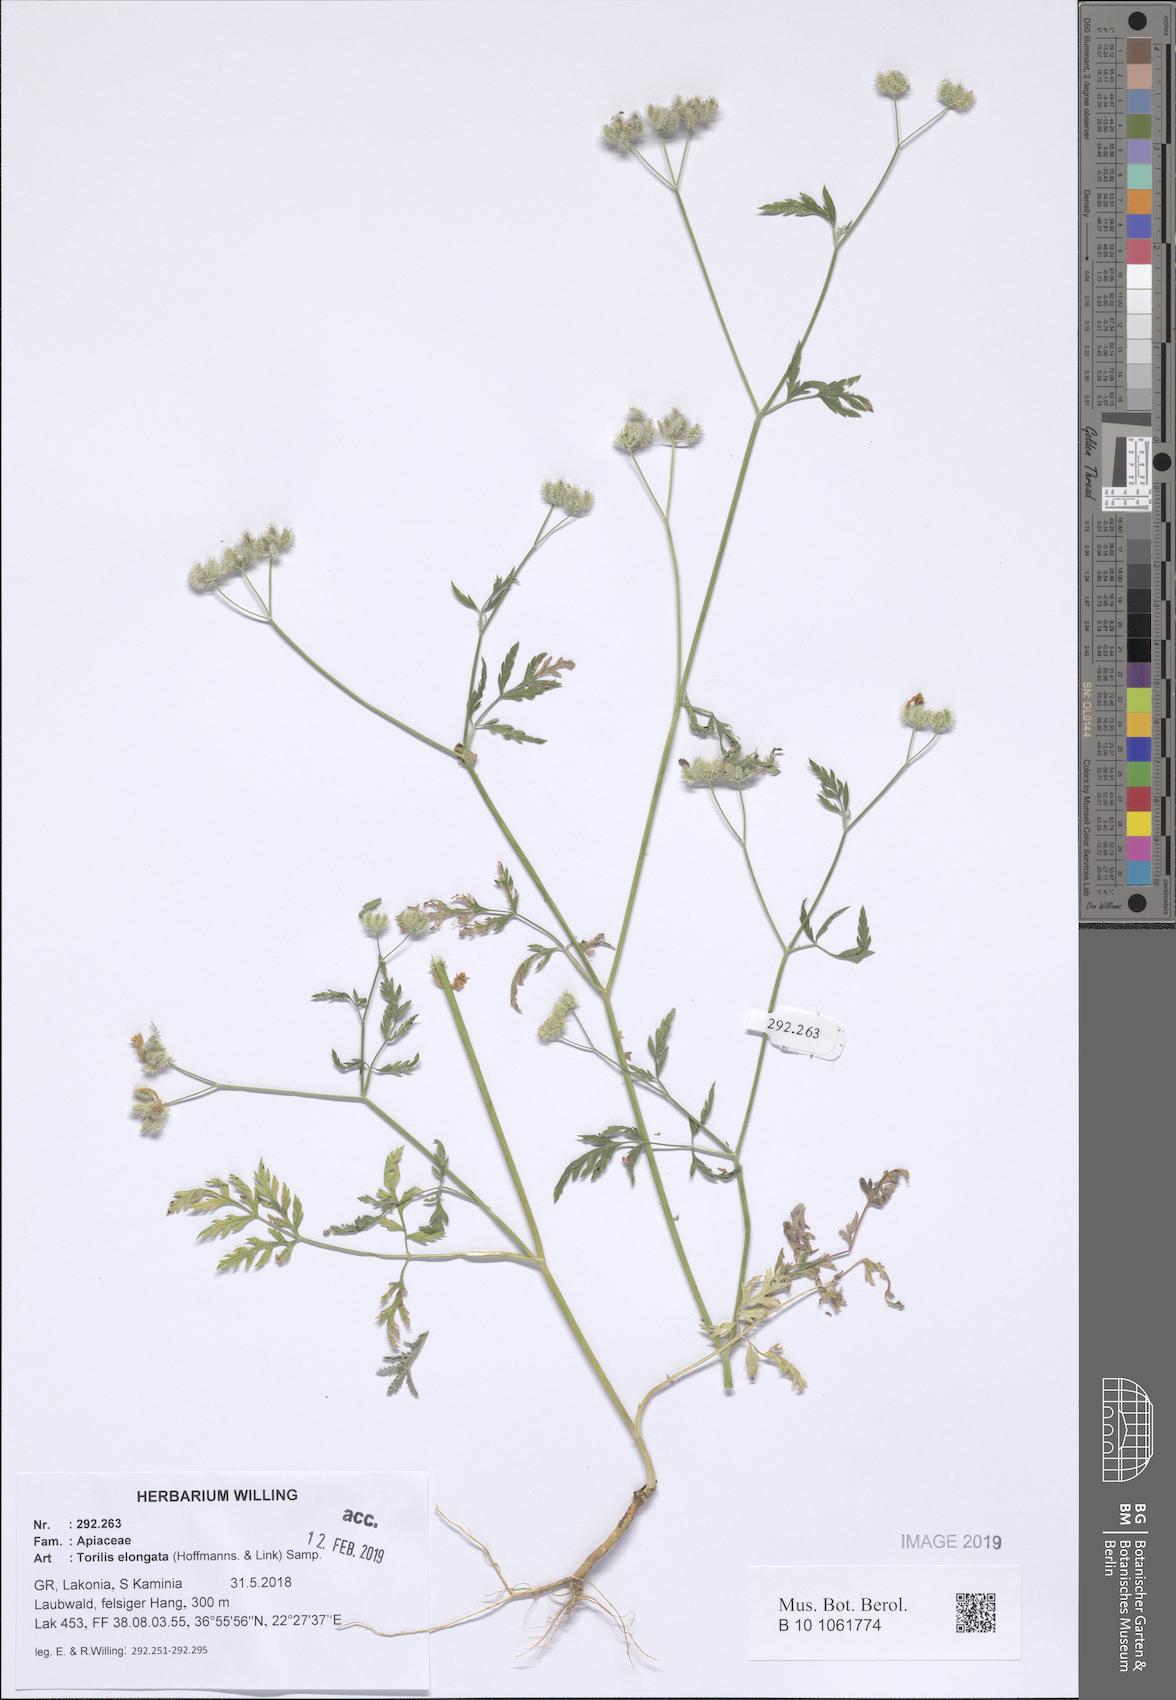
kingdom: Plantae
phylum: Tracheophyta
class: Magnoliopsida
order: Apiales
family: Apiaceae
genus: Torilis
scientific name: Torilis elongata
